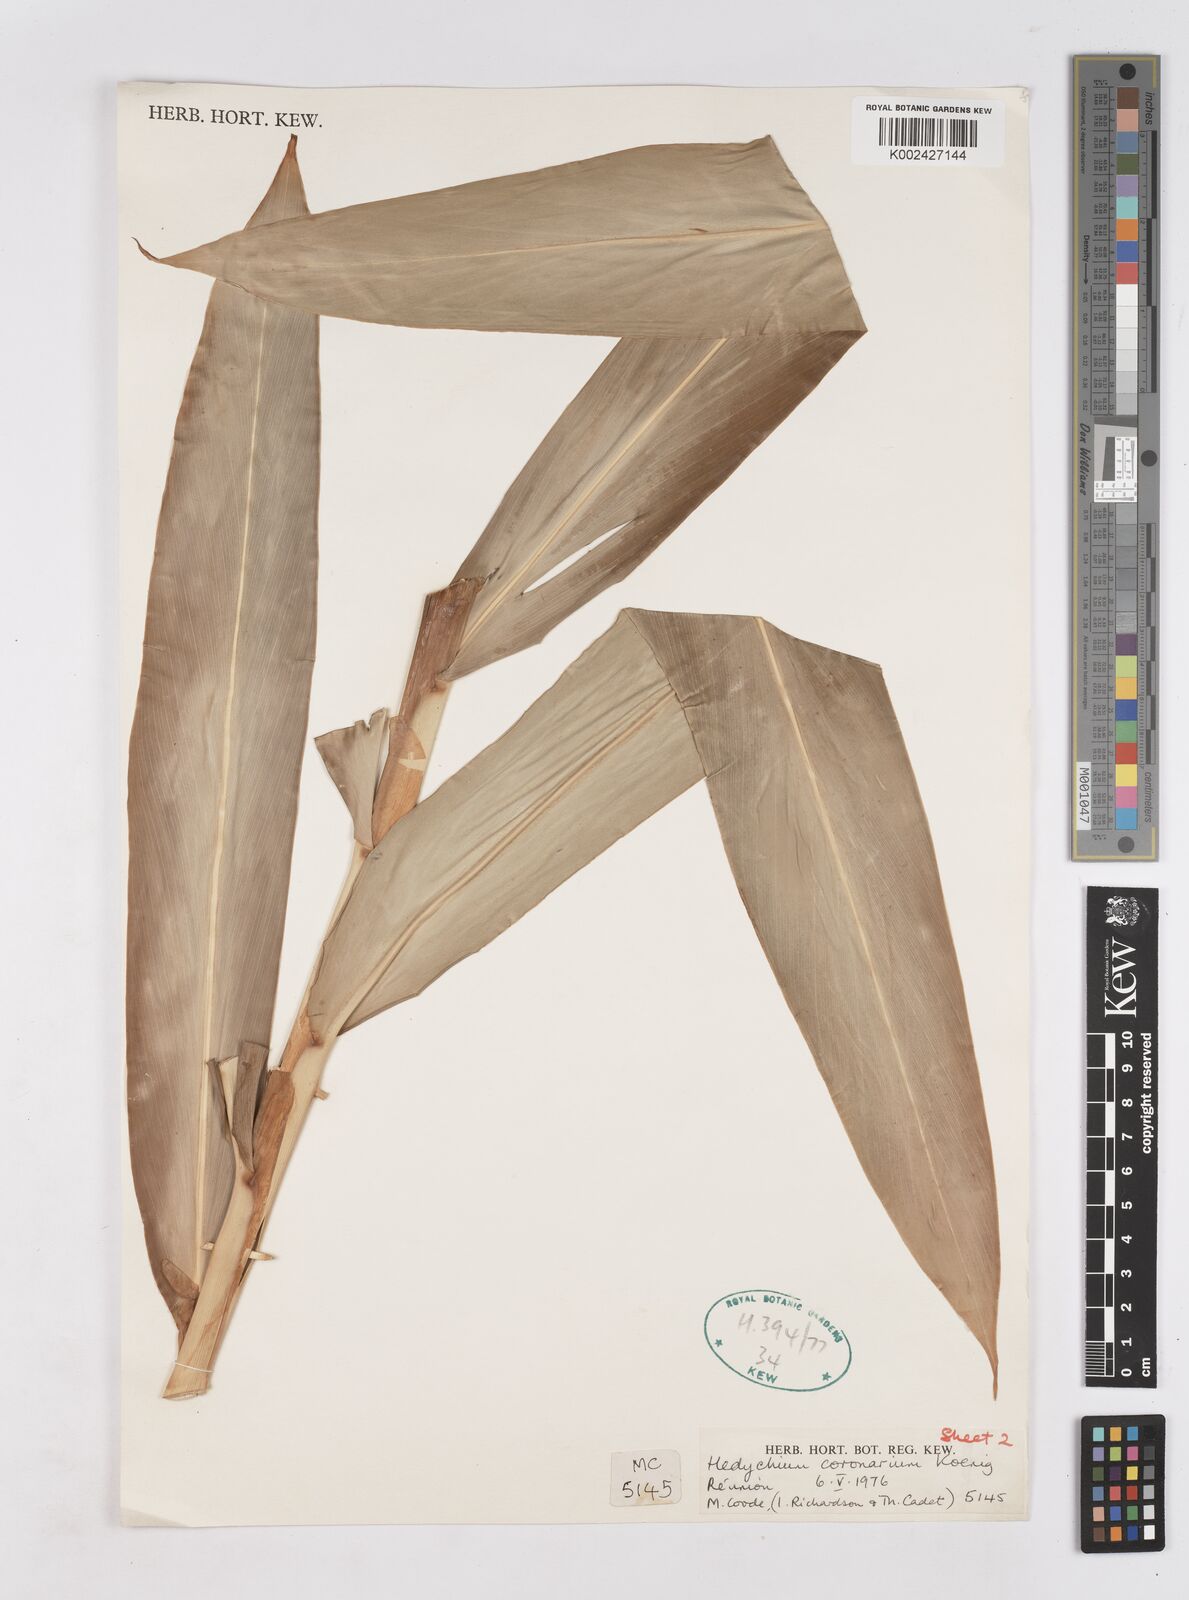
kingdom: Plantae
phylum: Tracheophyta
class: Liliopsida
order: Zingiberales
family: Zingiberaceae
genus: Hedychium
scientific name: Hedychium coronarium
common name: White garland-lily
